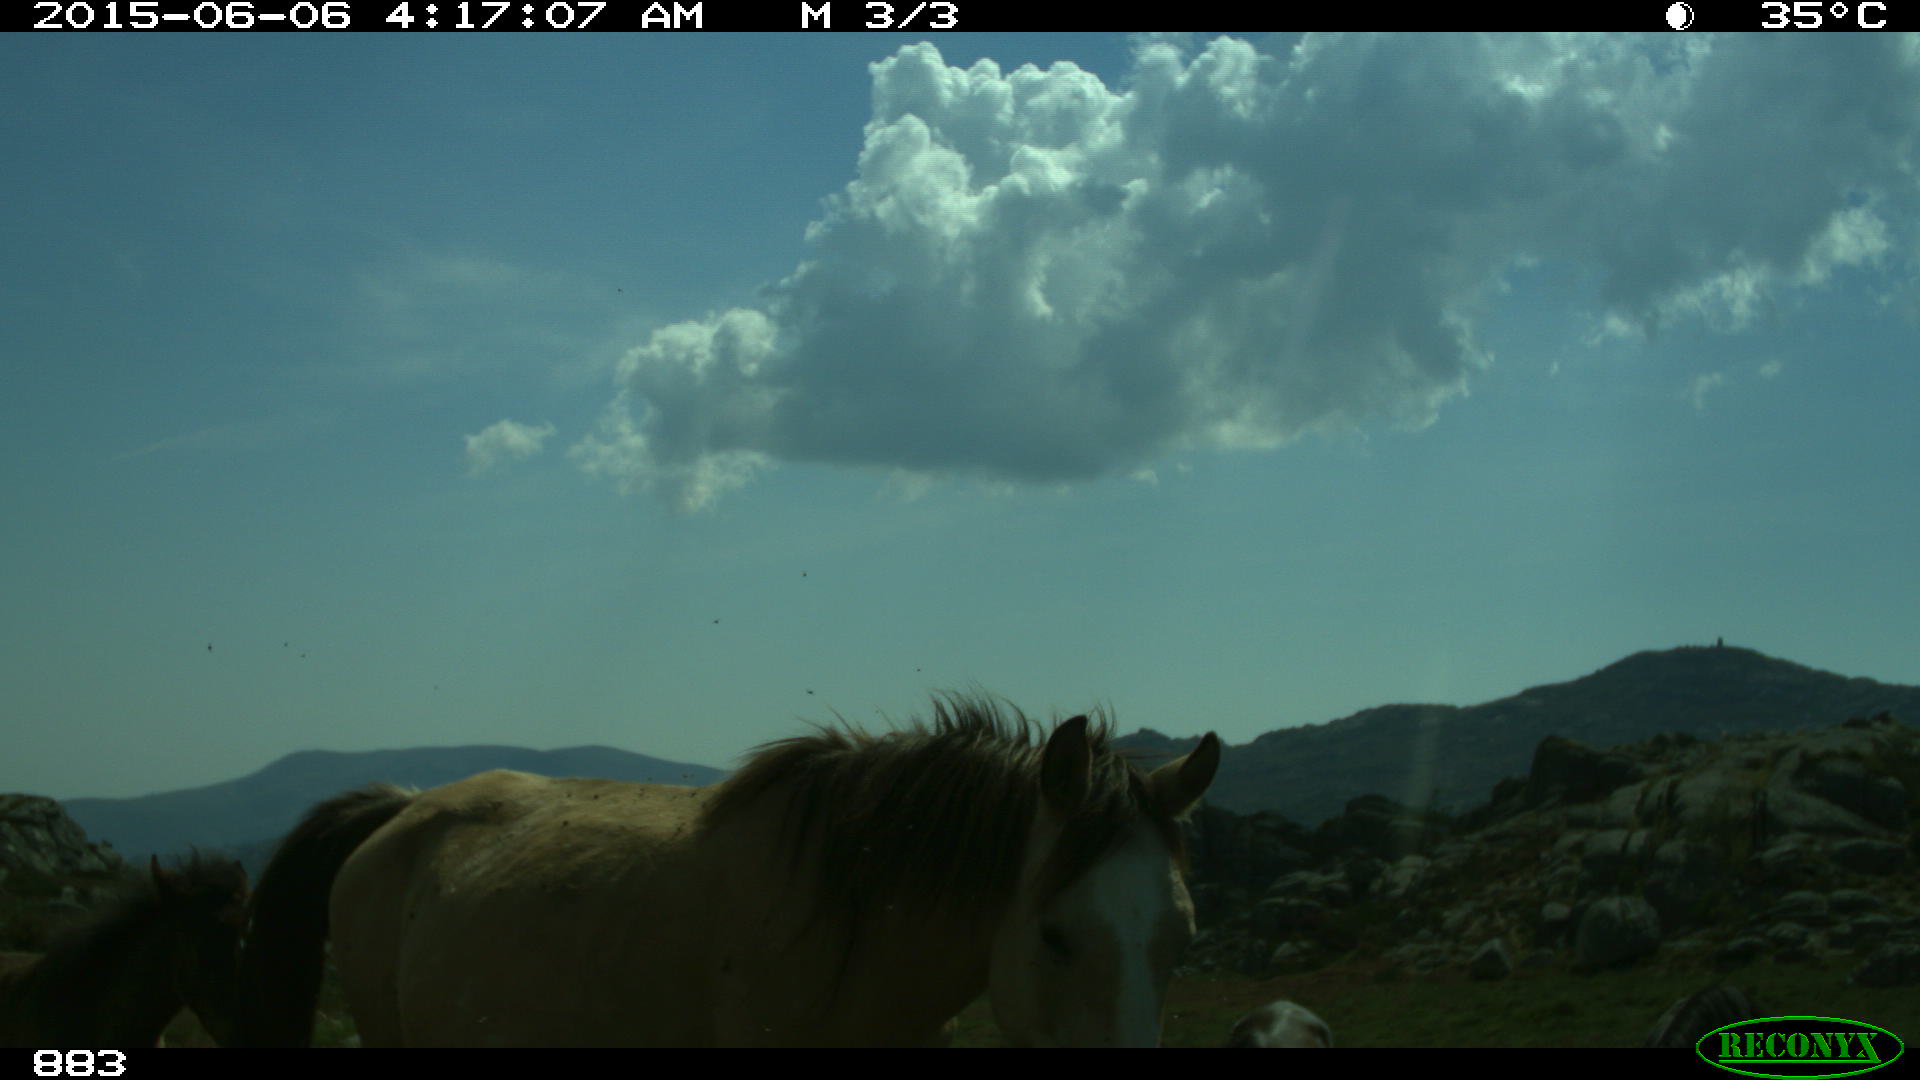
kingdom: Animalia
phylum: Chordata
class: Mammalia
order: Perissodactyla
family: Equidae
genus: Equus
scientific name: Equus caballus
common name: Horse
